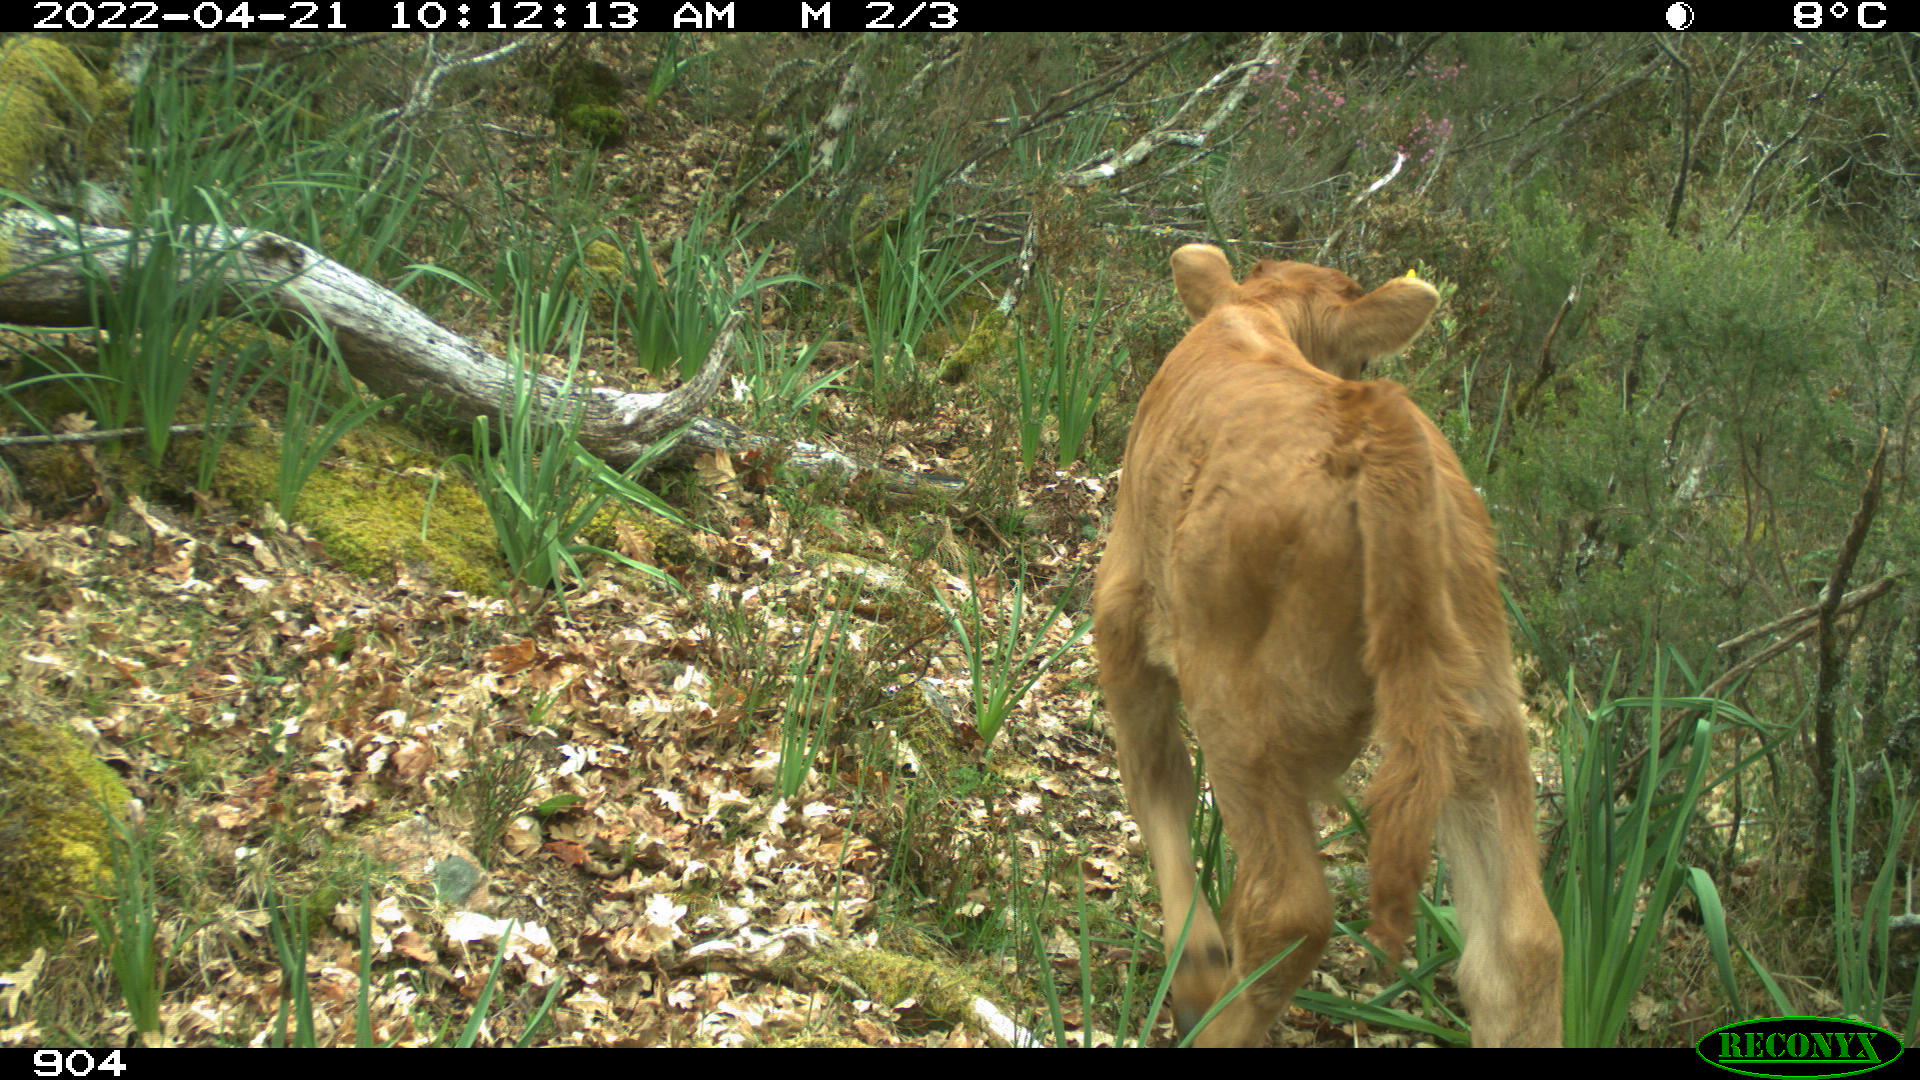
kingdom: Animalia
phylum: Chordata
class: Mammalia
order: Artiodactyla
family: Bovidae
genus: Bos
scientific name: Bos taurus
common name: Domesticated cattle
